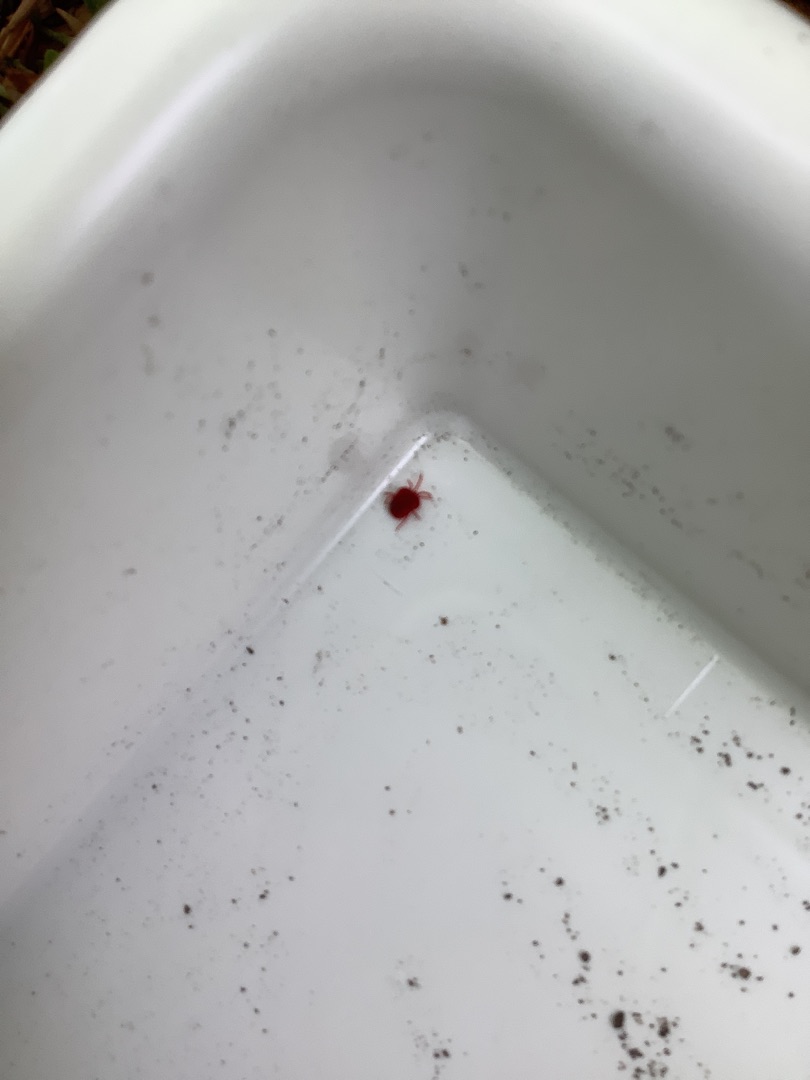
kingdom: Animalia
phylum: Arthropoda
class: Arachnida
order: Trombidiformes
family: Trombidiidae
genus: Trombidium
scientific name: Trombidium
